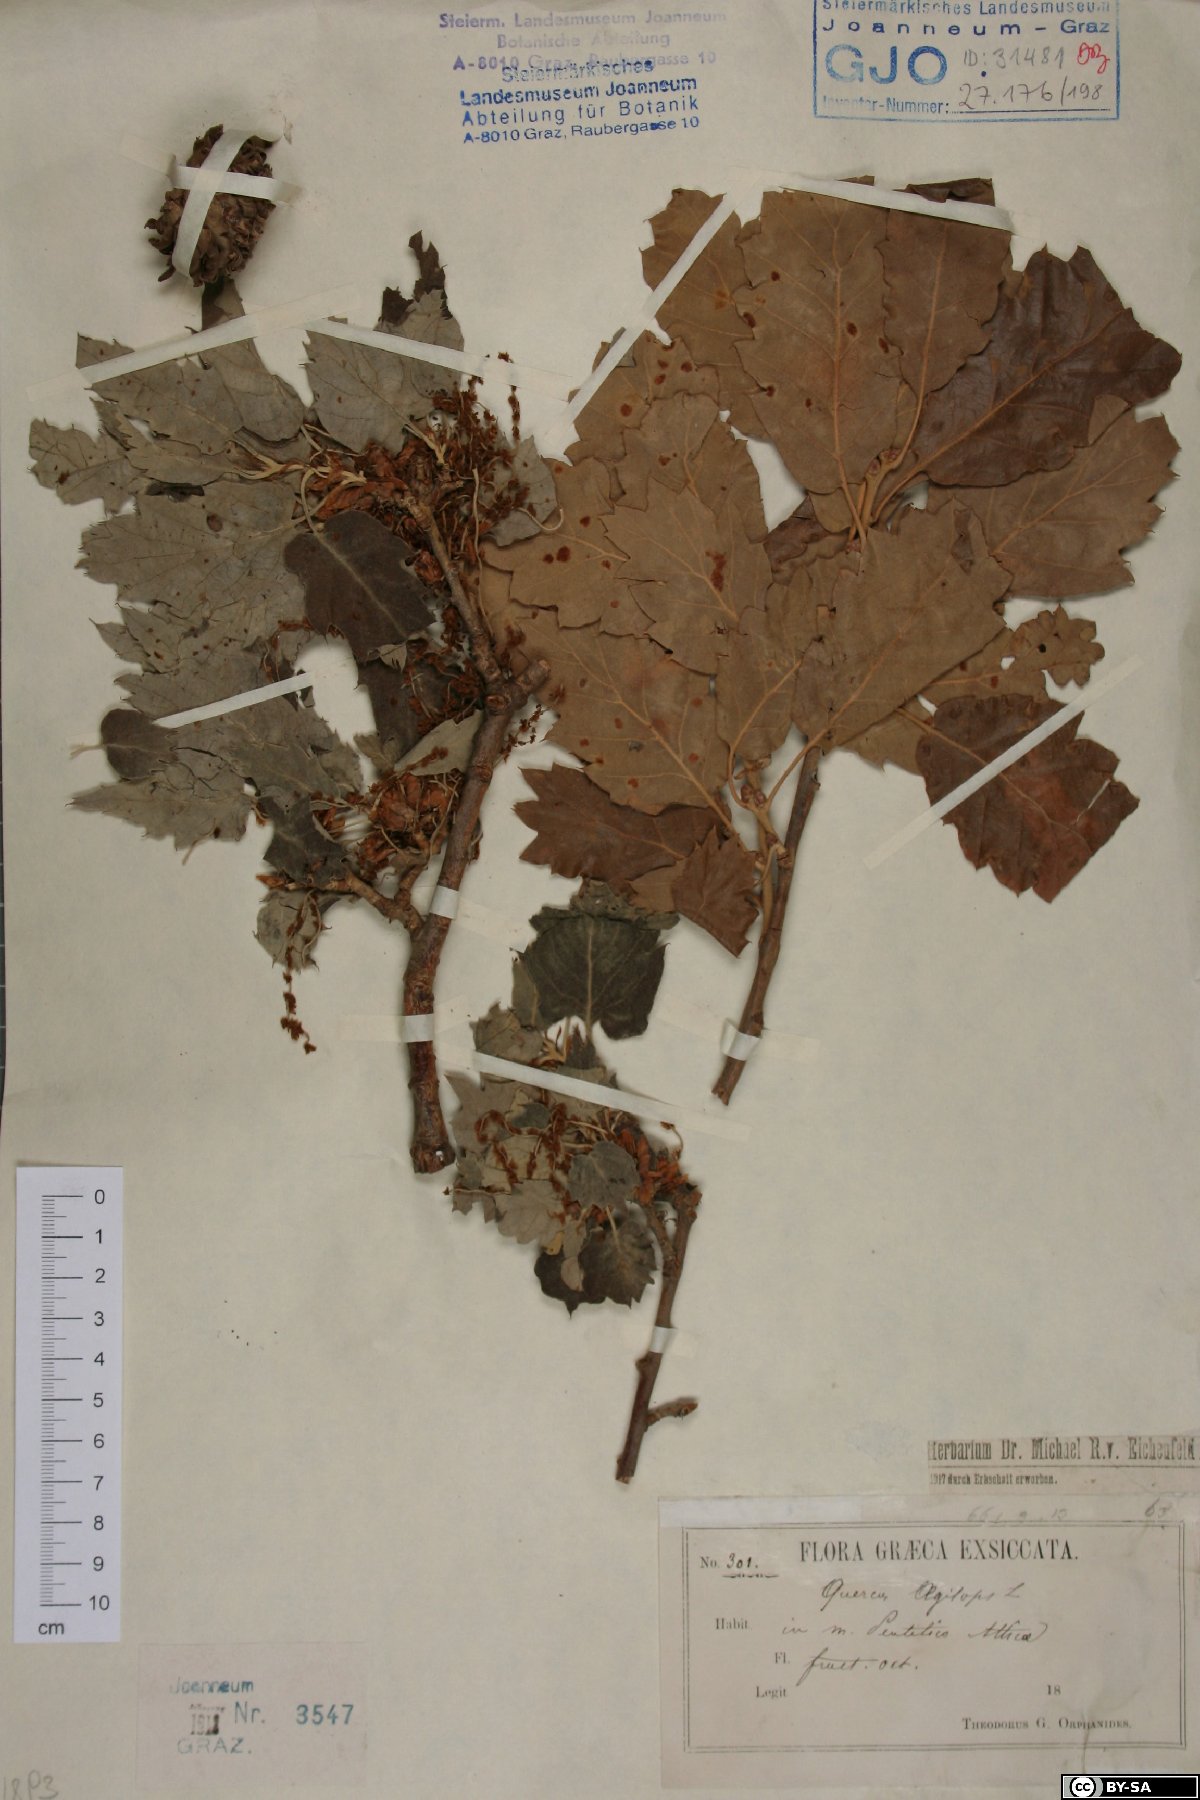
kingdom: Plantae
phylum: Tracheophyta
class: Magnoliopsida
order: Fagales
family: Fagaceae
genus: Quercus
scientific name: Quercus ithaburensis
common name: Tabor oak
